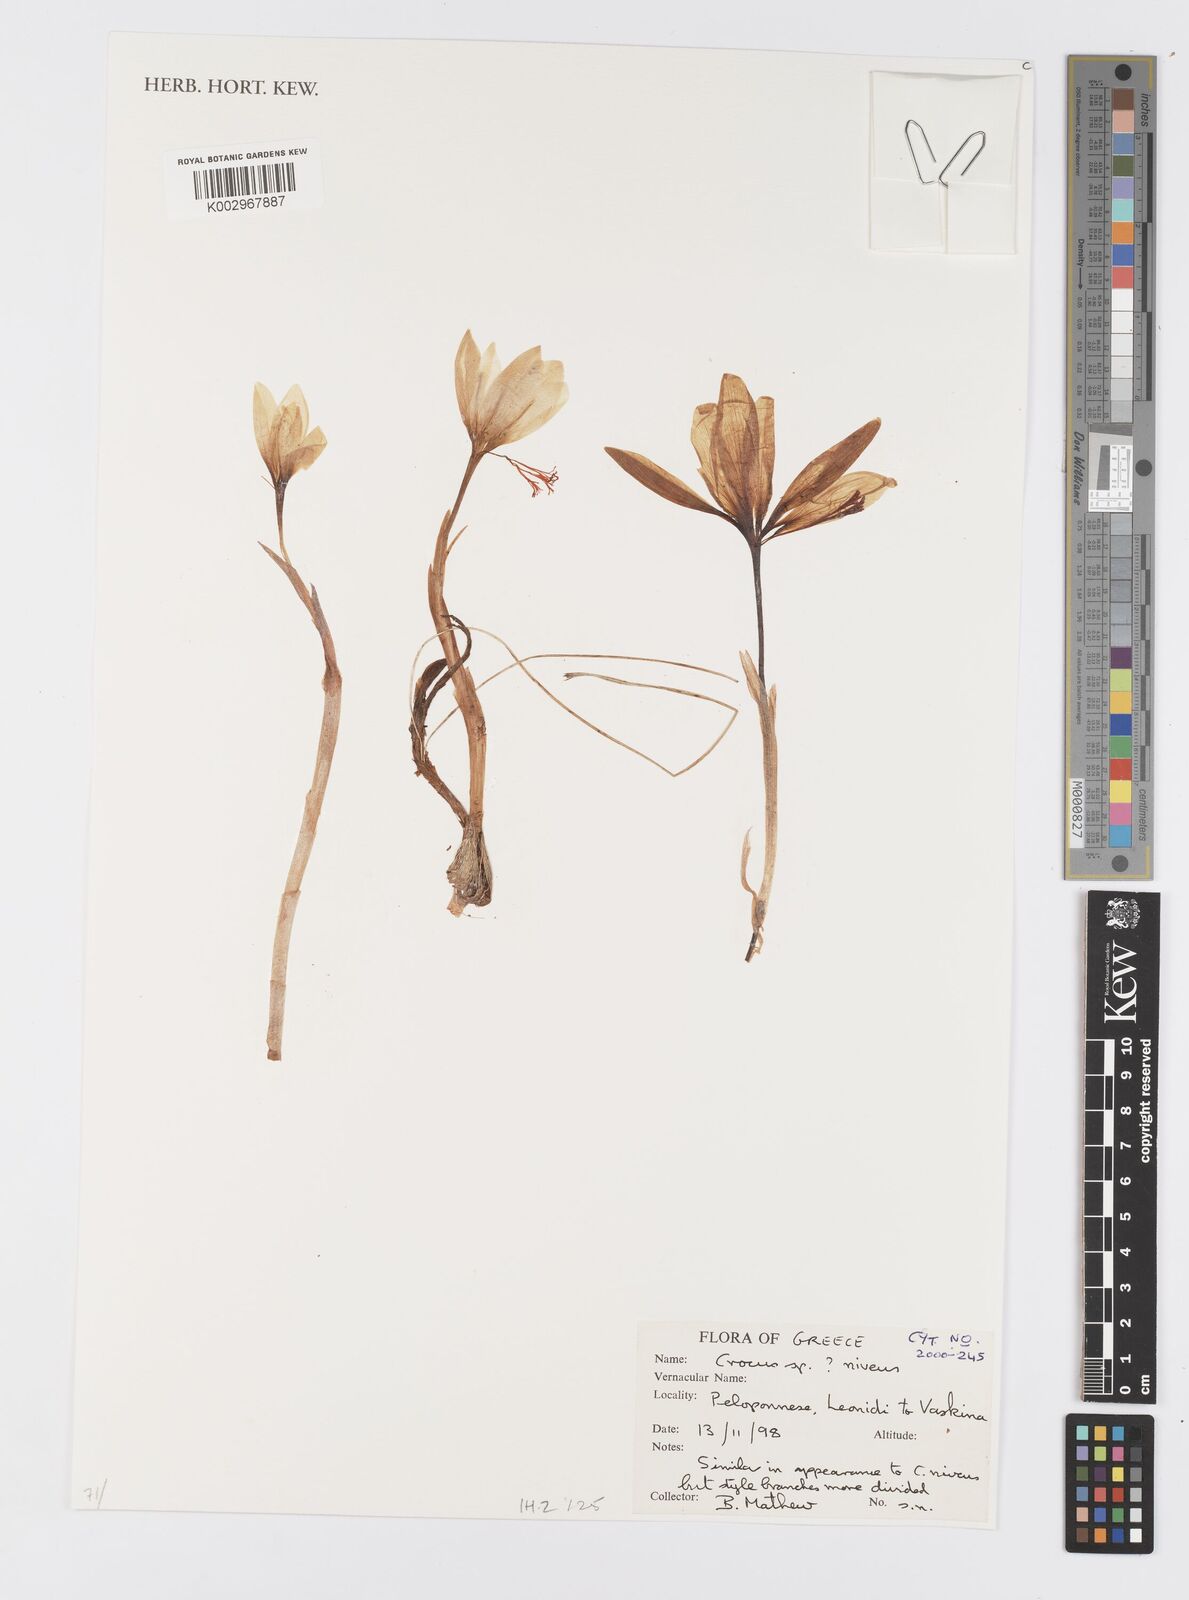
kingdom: Plantae
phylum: Tracheophyta
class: Liliopsida
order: Asparagales
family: Iridaceae
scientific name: Iridaceae
